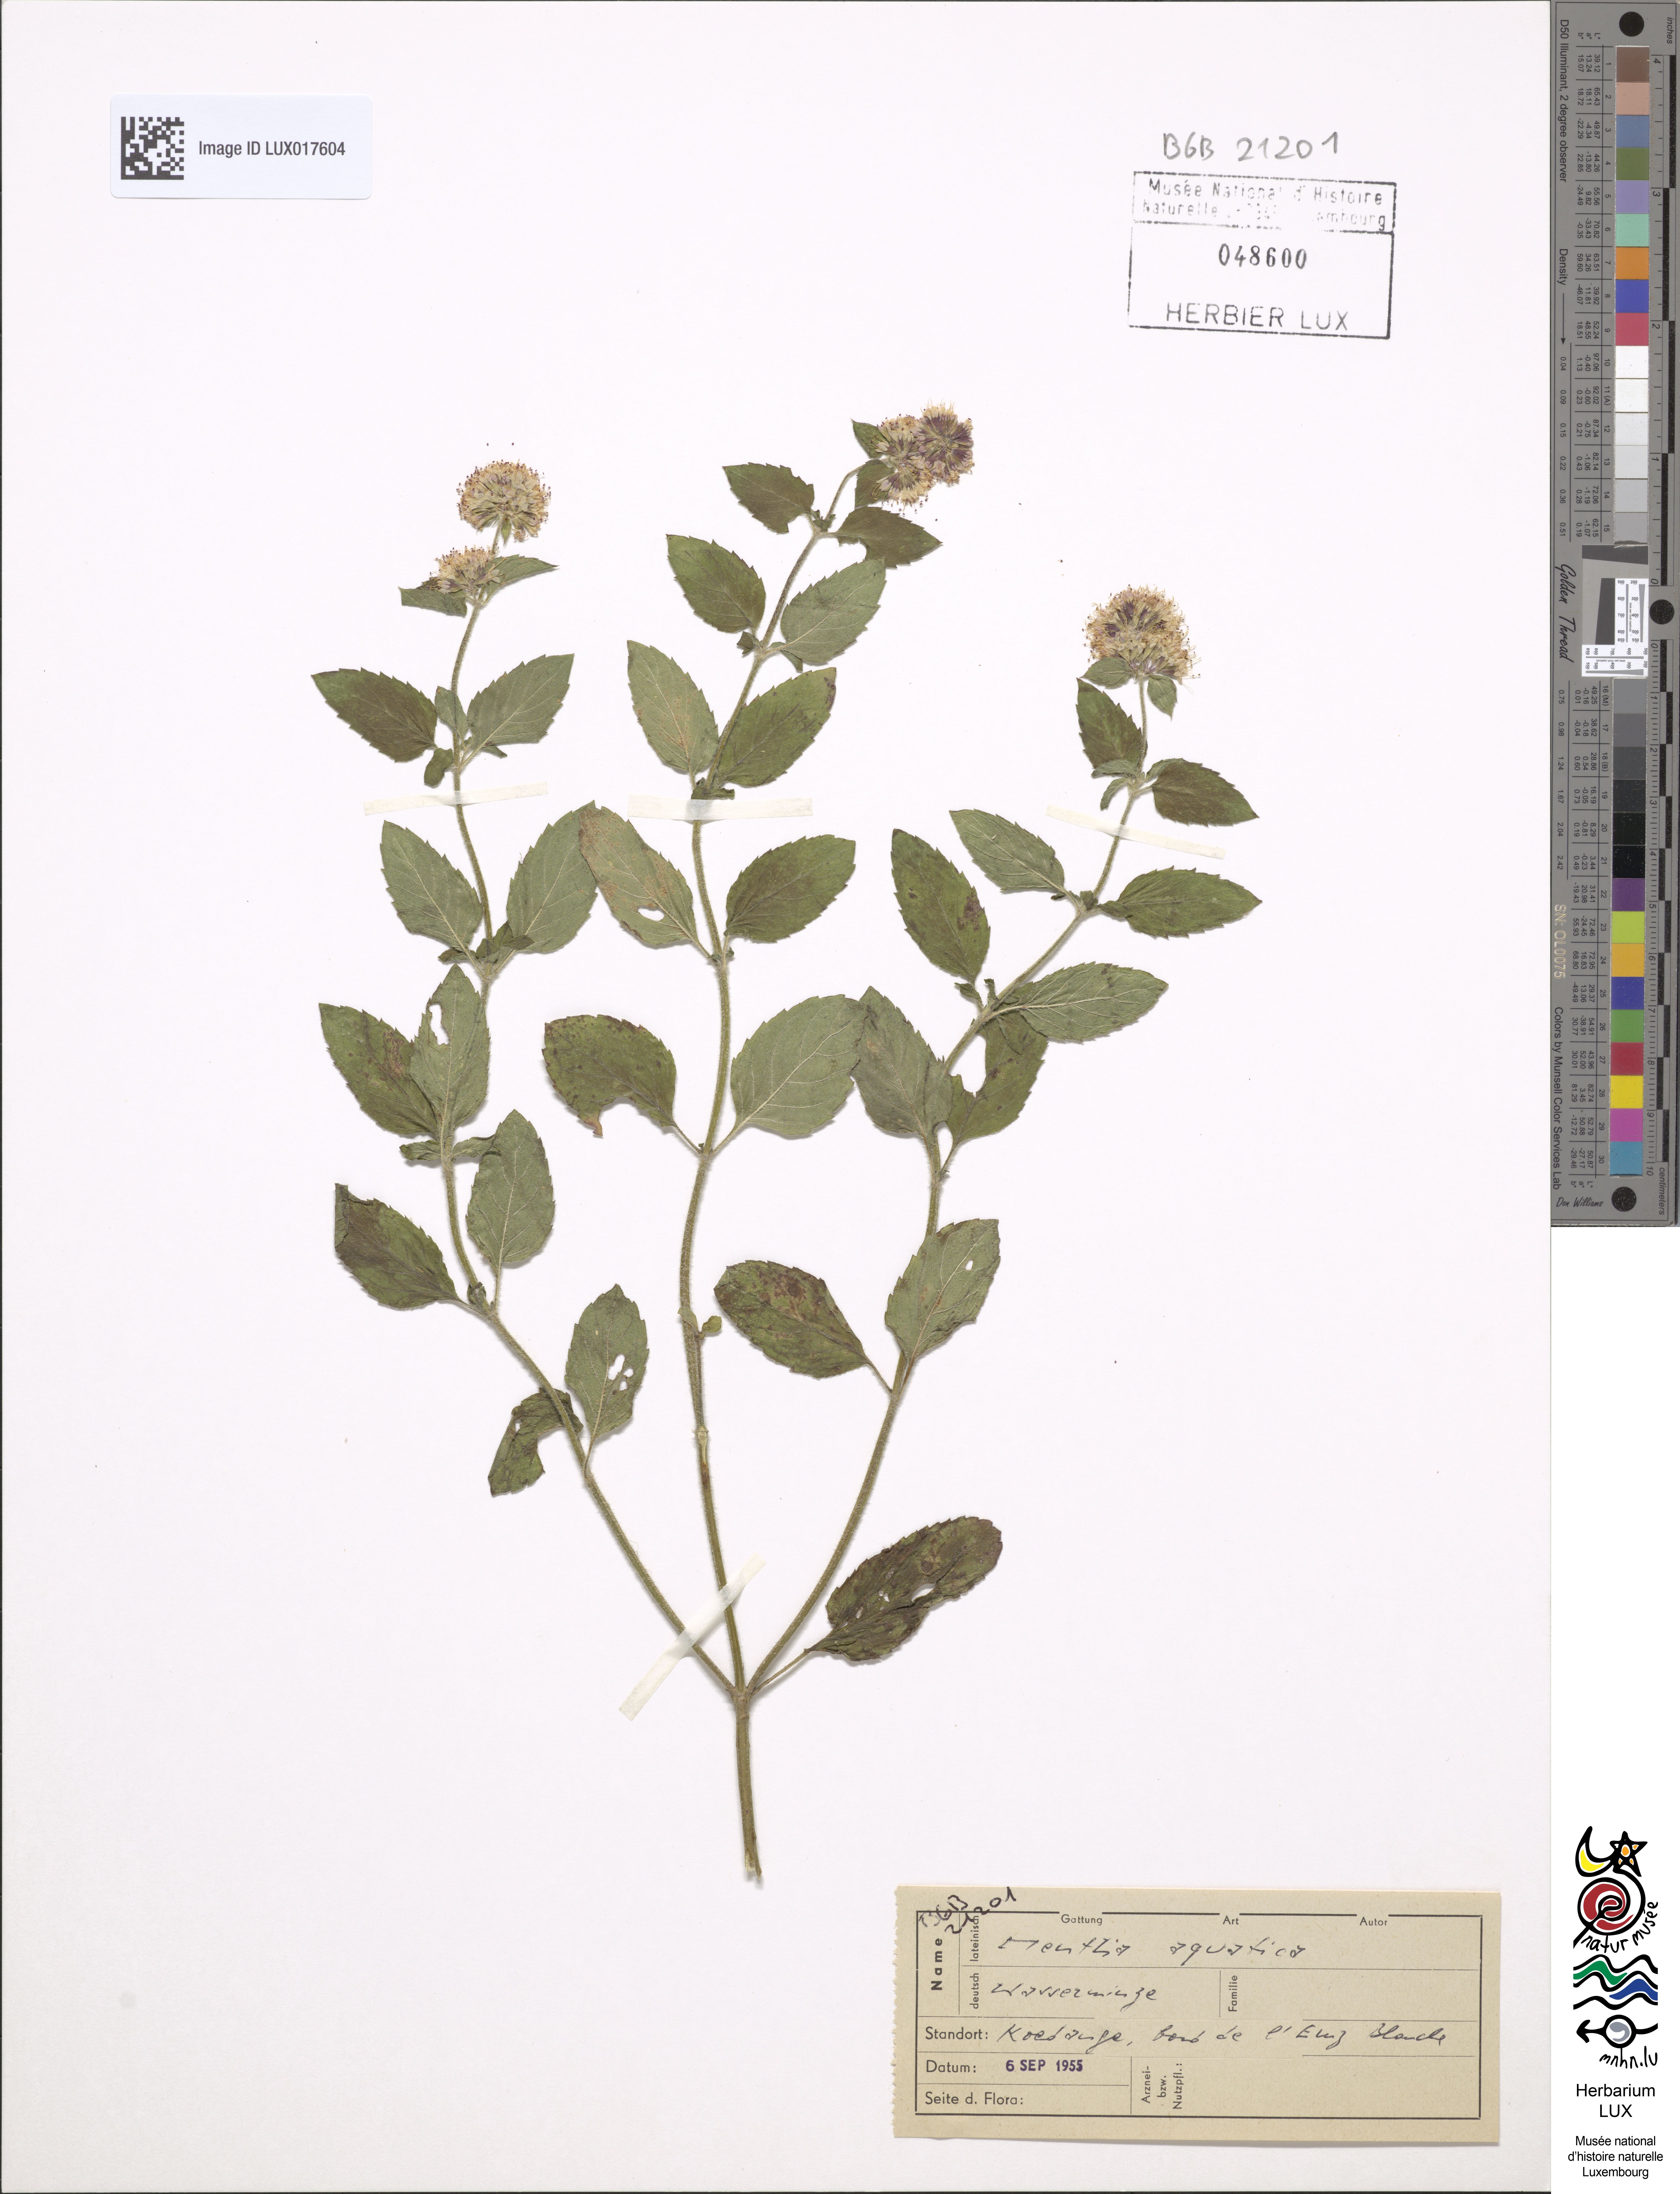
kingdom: Plantae
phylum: Tracheophyta
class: Magnoliopsida
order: Lamiales
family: Lamiaceae
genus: Mentha
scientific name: Mentha aquatica
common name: Water mint
